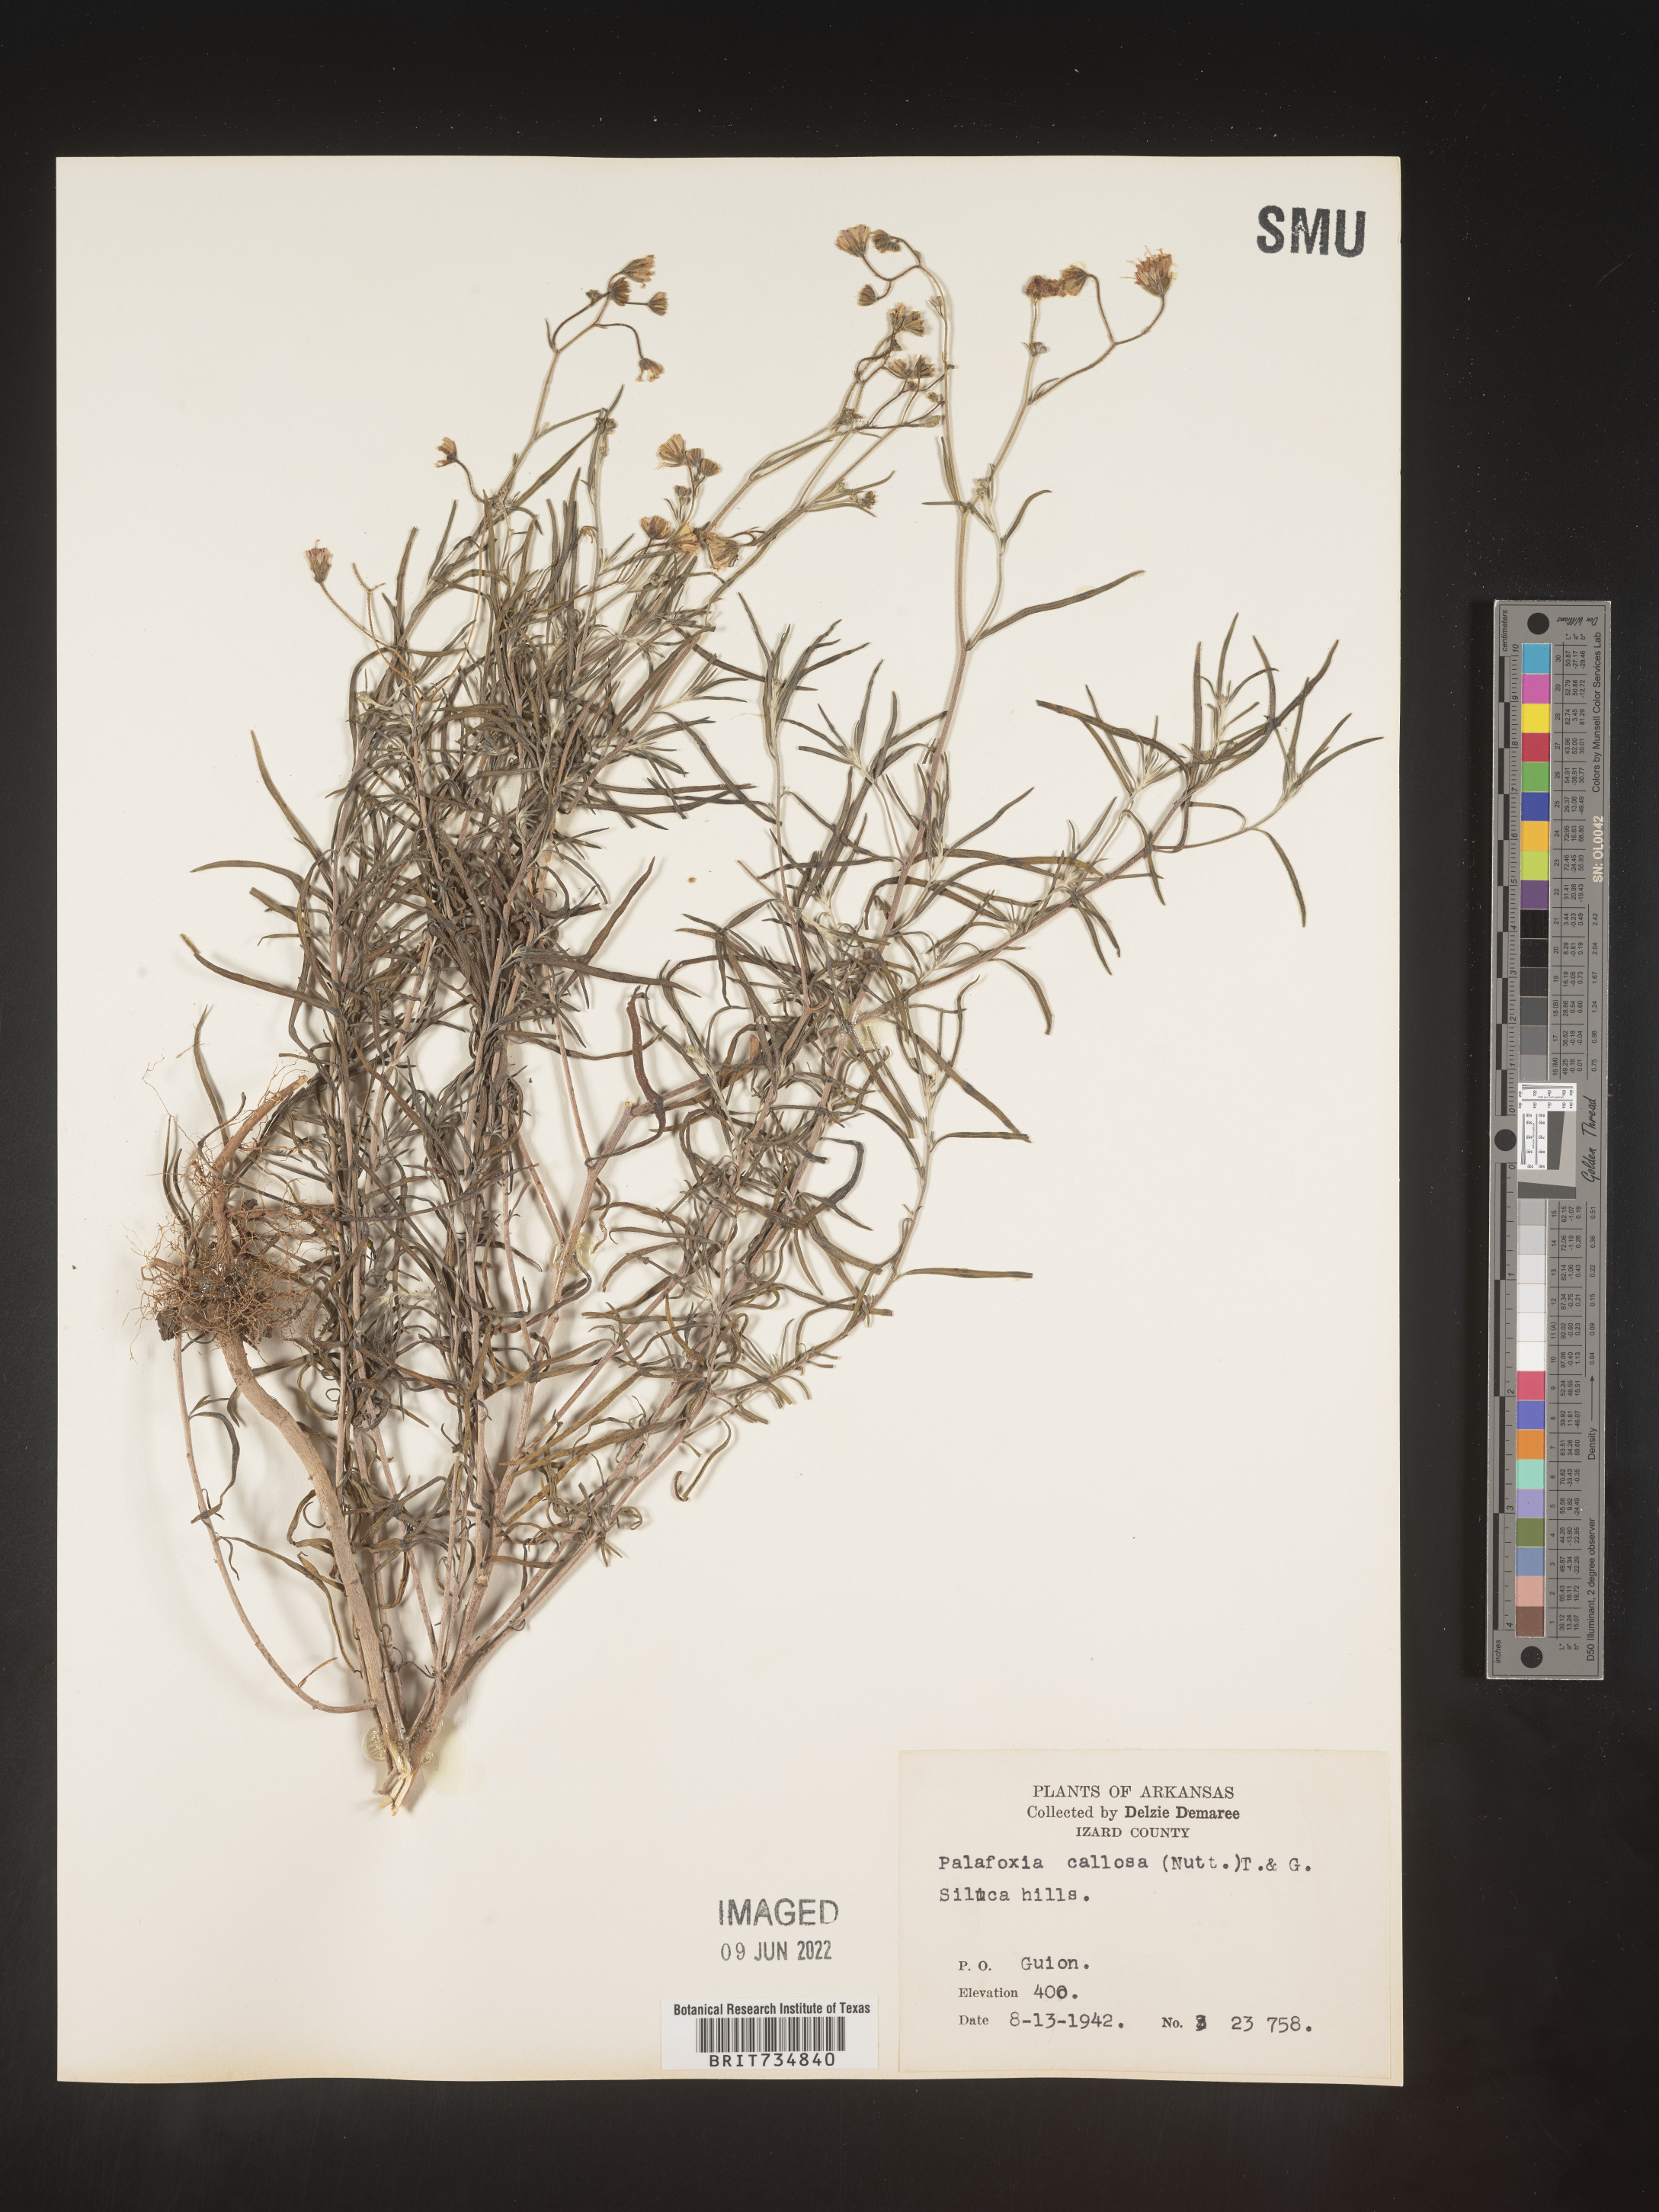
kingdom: Plantae
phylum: Tracheophyta
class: Magnoliopsida
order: Asterales
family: Asteraceae
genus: Palafoxia
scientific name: Palafoxia callosa
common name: Small palafox
